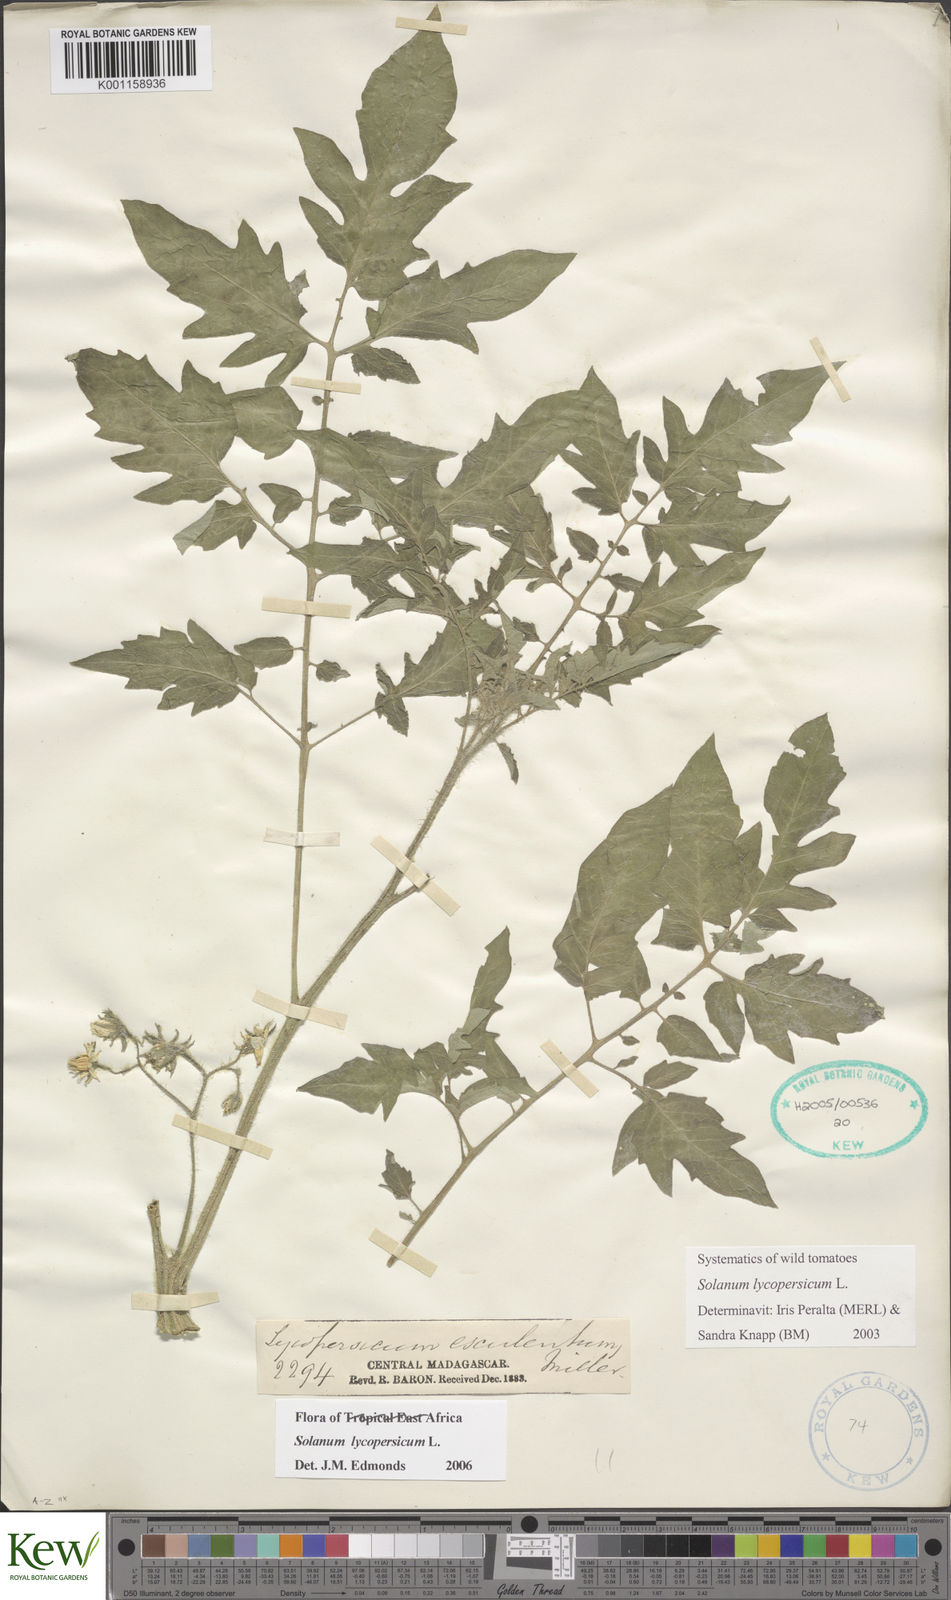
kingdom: Plantae
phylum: Tracheophyta
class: Magnoliopsida
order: Solanales
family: Solanaceae
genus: Solanum
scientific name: Solanum lycopersicum
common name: Garden tomato
